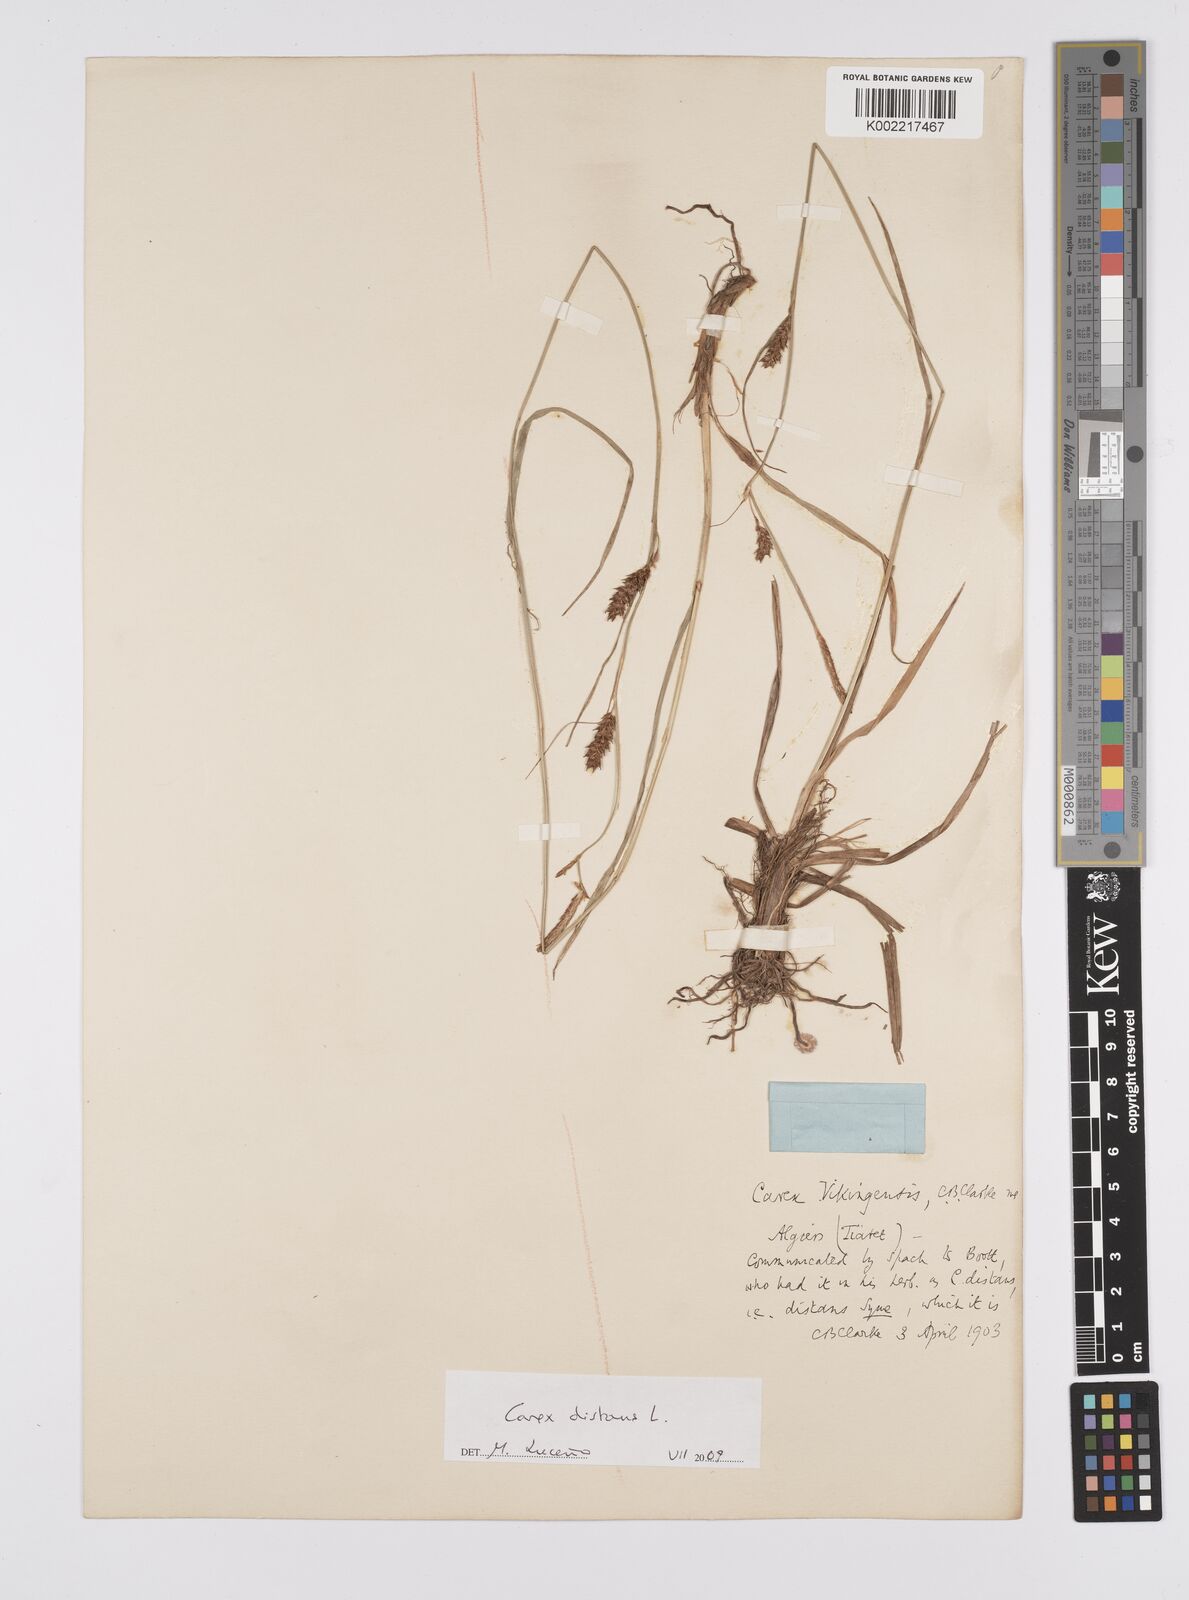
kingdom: Plantae
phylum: Tracheophyta
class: Liliopsida
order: Poales
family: Cyperaceae
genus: Carex
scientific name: Carex distans
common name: Distant sedge
